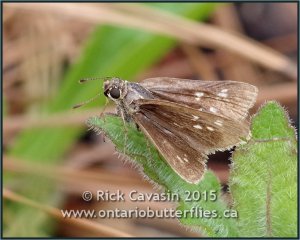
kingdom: Animalia
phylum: Arthropoda
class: Insecta
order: Lepidoptera
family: Hesperiidae
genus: Mastor
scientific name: Mastor carolina
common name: Reversed Roadside-skipper
